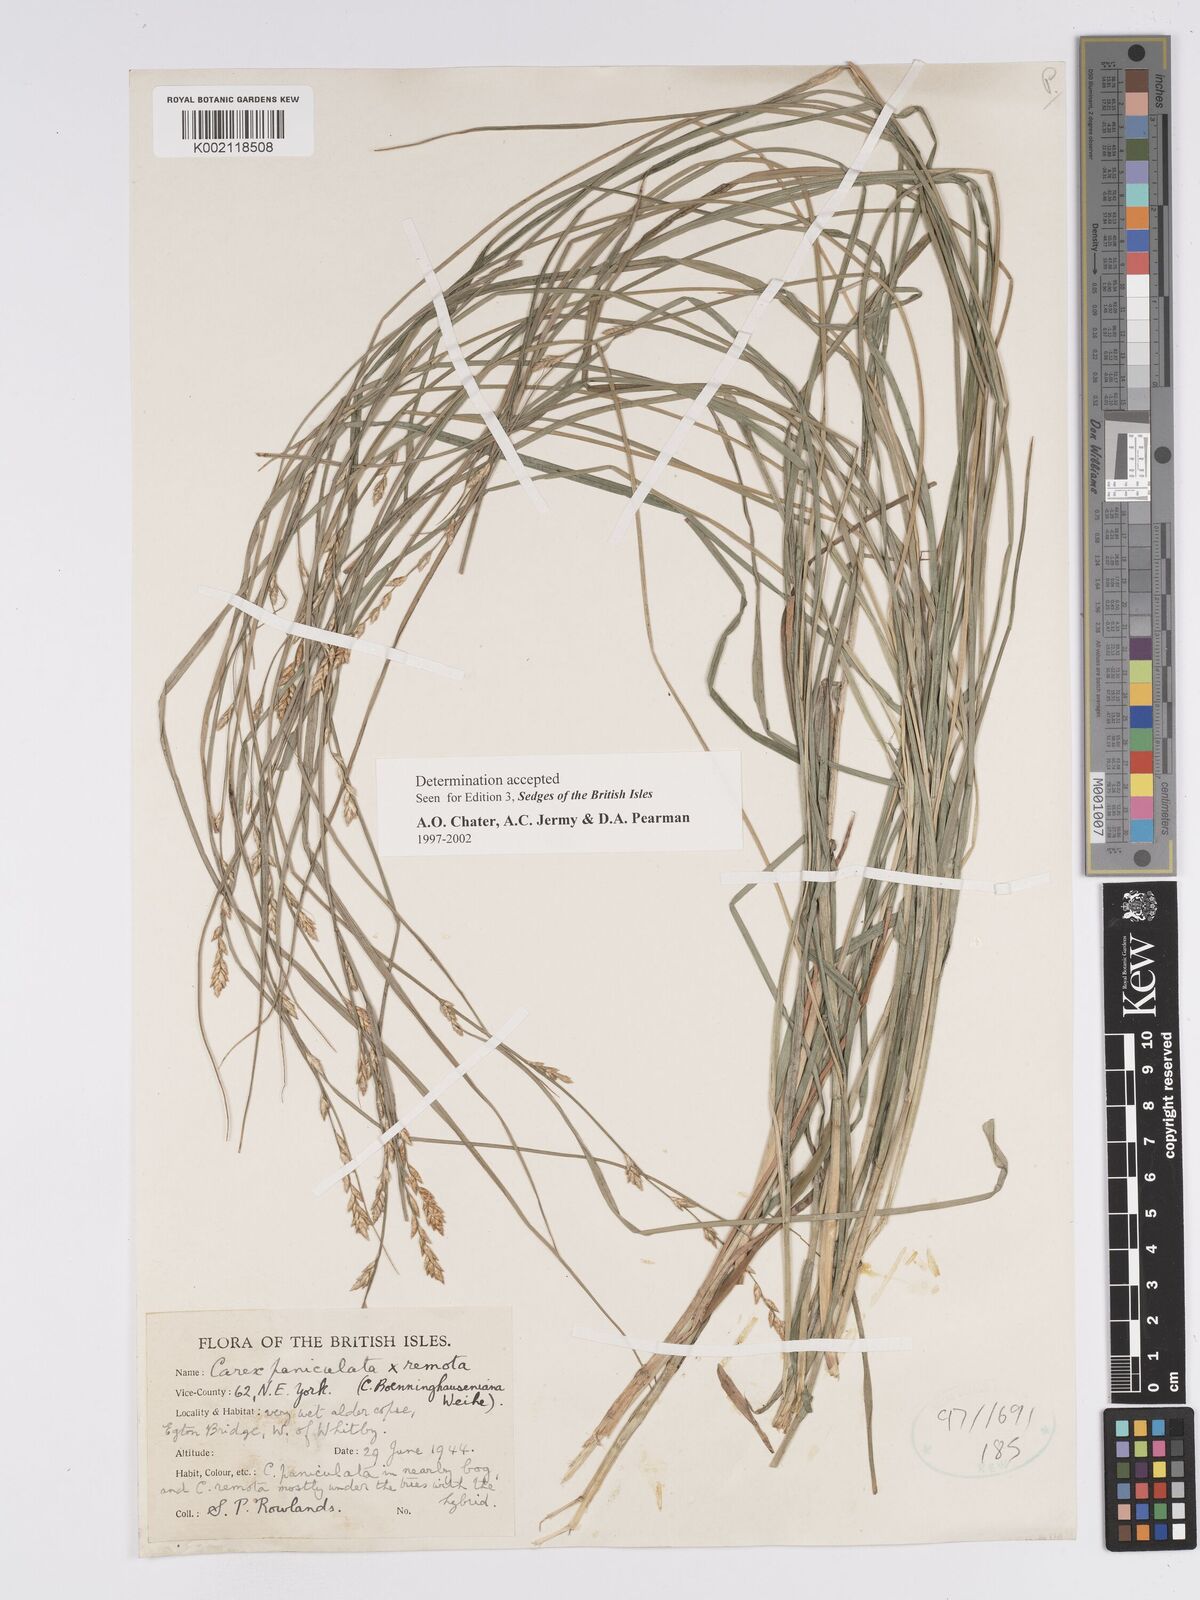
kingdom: Plantae
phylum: Tracheophyta
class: Liliopsida
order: Poales
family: Cyperaceae
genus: Carex
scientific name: Carex boenninghausiana
